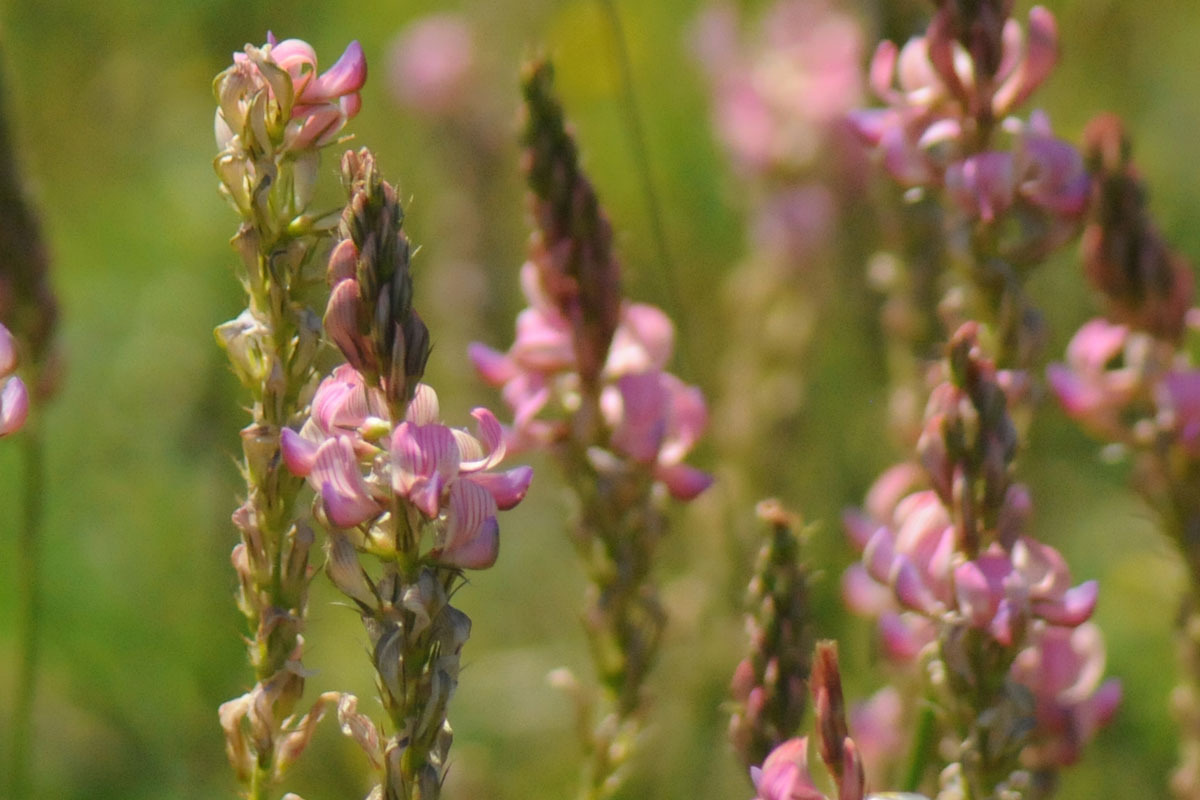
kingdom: Plantae
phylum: Tracheophyta
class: Magnoliopsida
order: Fabales
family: Fabaceae
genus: Onobrychis
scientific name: Onobrychis viciifolia
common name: Esparsette
